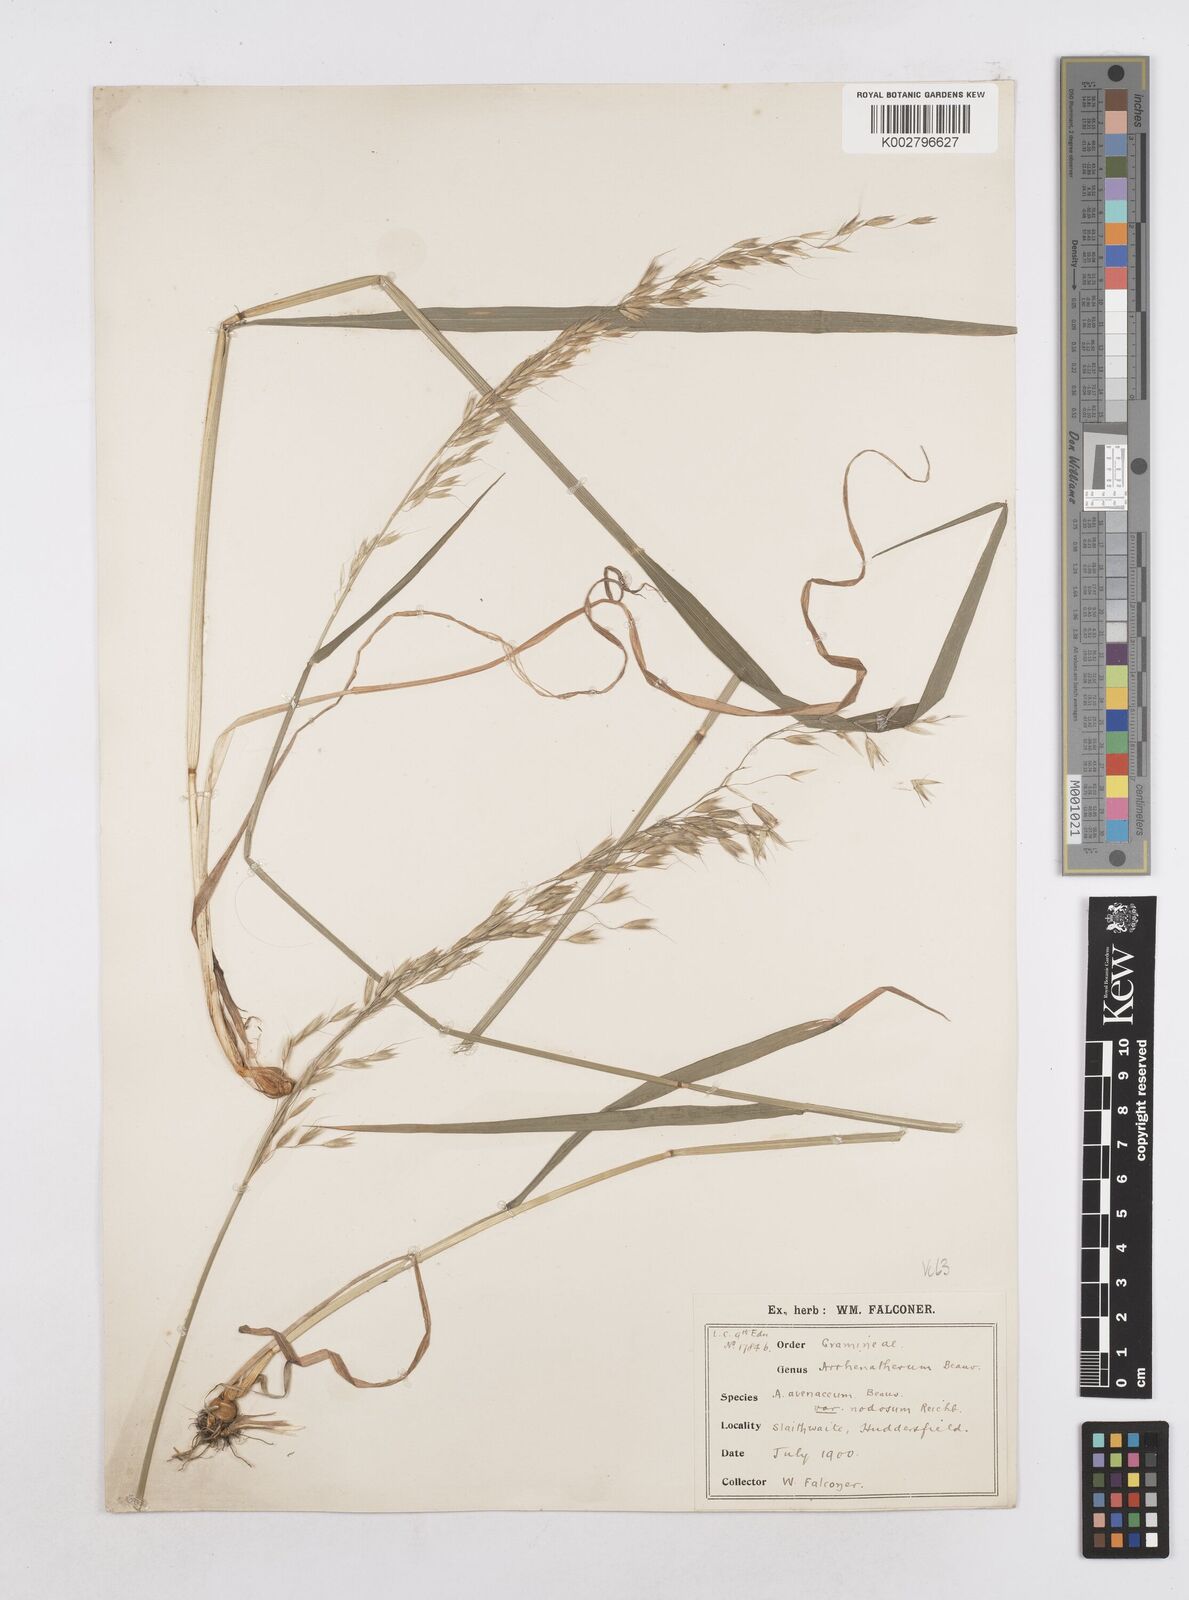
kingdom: Plantae
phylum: Tracheophyta
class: Liliopsida
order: Poales
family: Poaceae
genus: Arrhenatherum
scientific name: Arrhenatherum elatius
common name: Tall oatgrass
